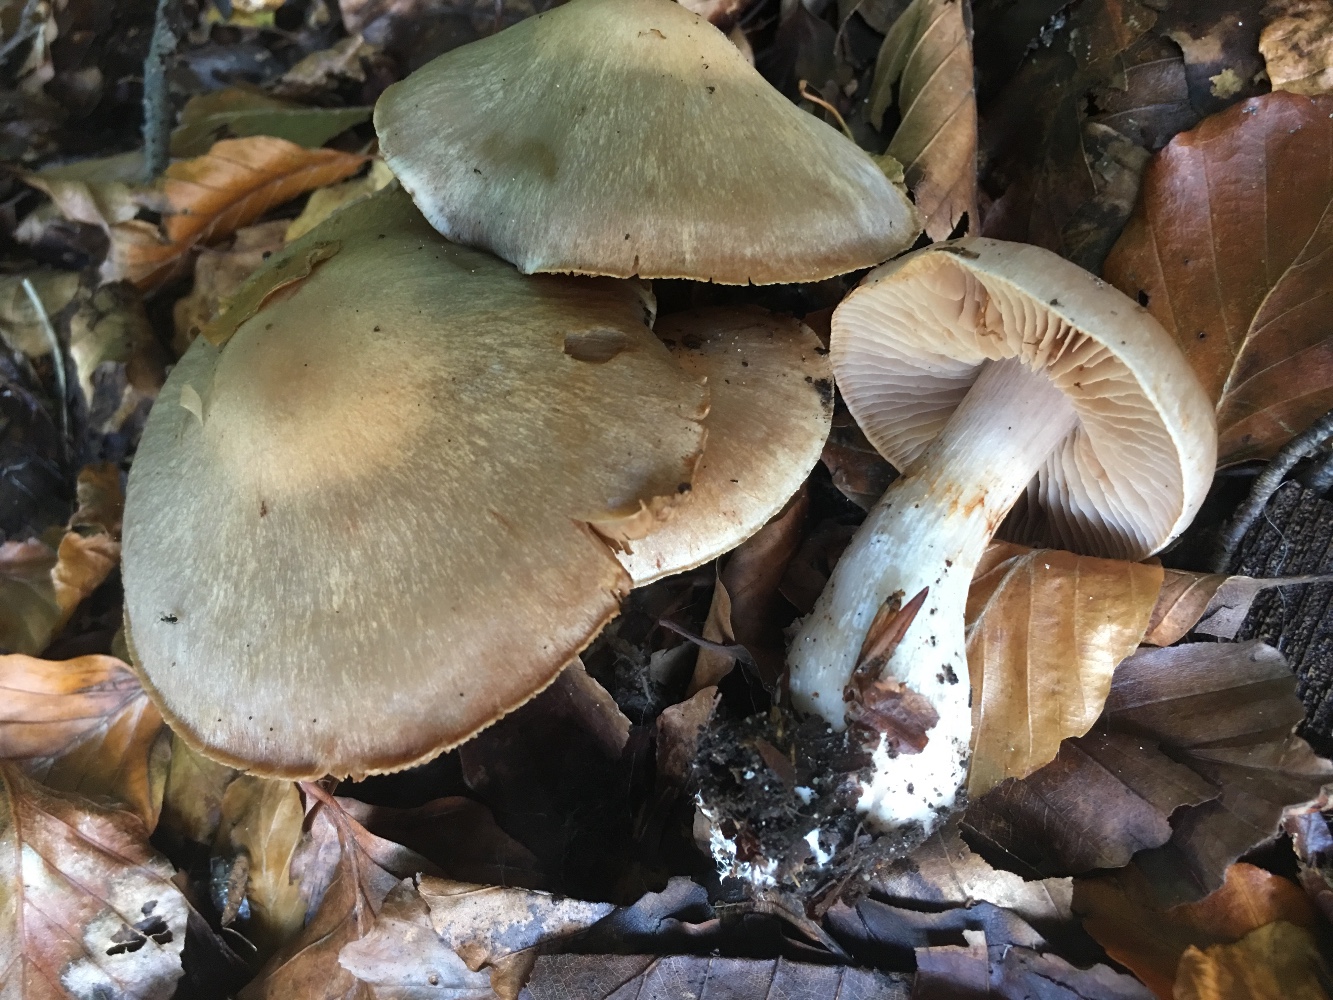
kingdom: Fungi
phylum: Basidiomycota
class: Agaricomycetes
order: Agaricales
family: Cortinariaceae
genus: Cortinarius
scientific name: Cortinarius turgidus
